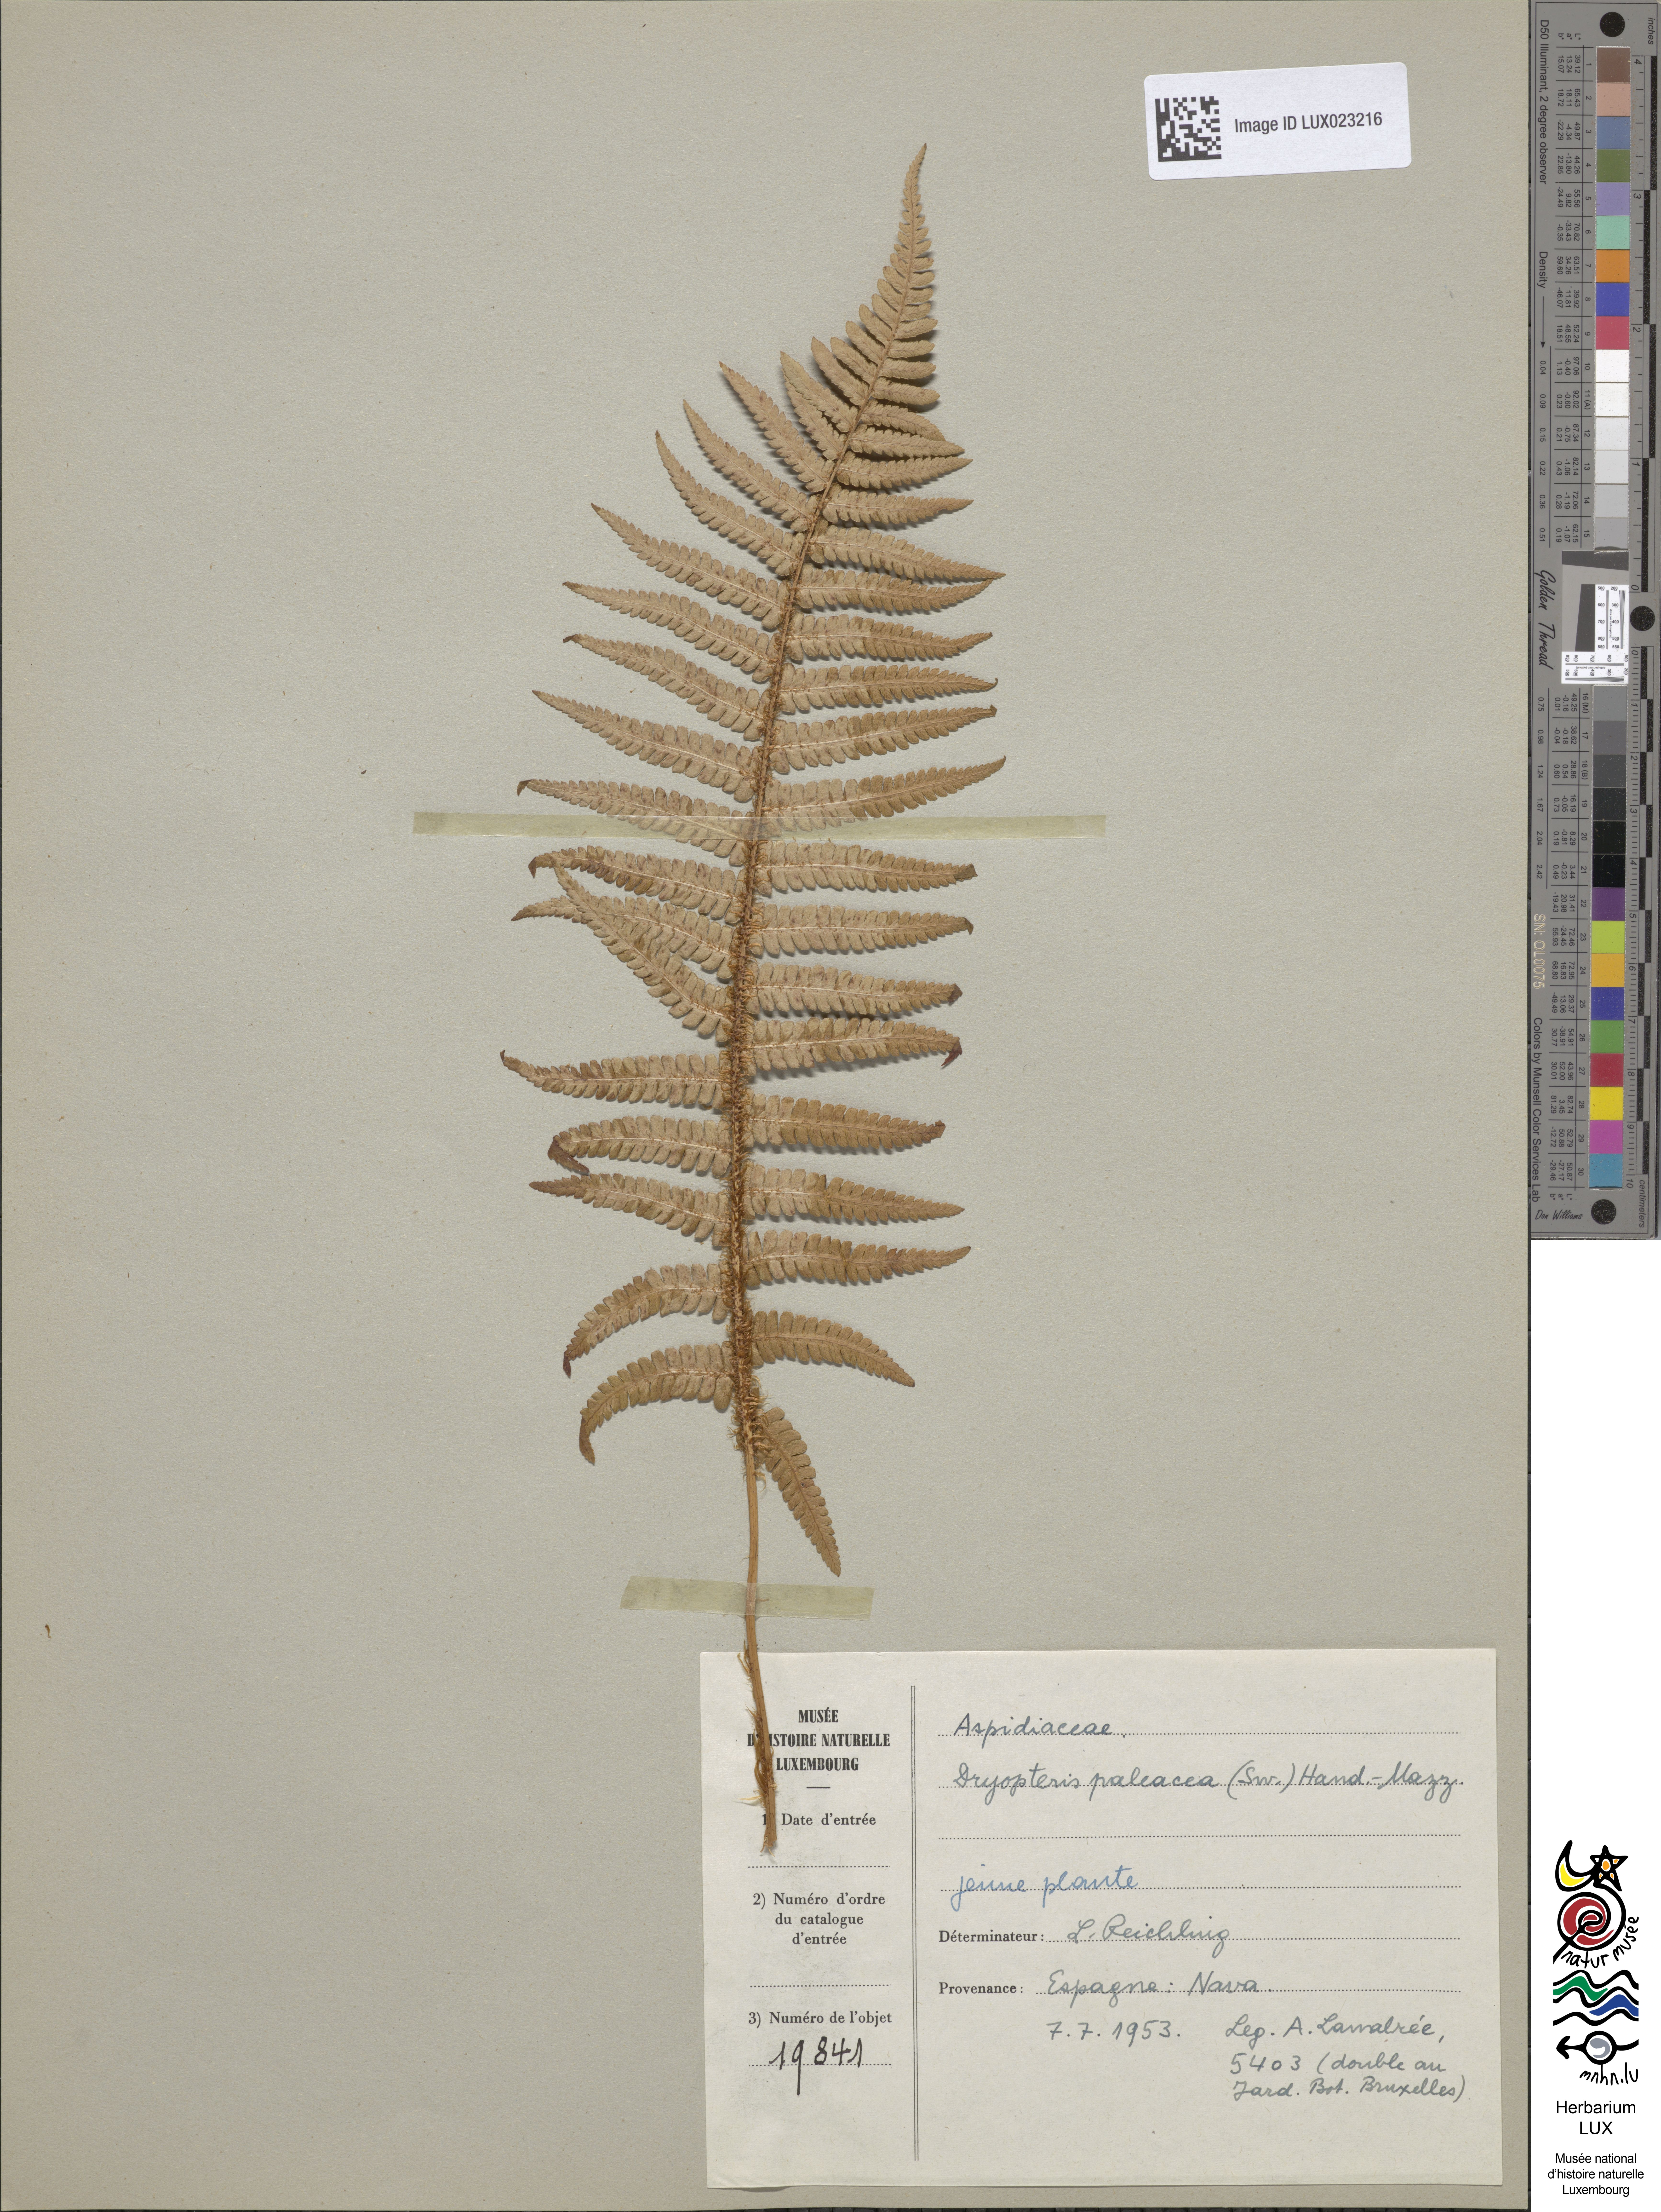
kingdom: Plantae
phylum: Tracheophyta
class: Polypodiopsida
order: Polypodiales
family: Dryopteridaceae
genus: Dryopteris
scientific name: Dryopteris paleacea
